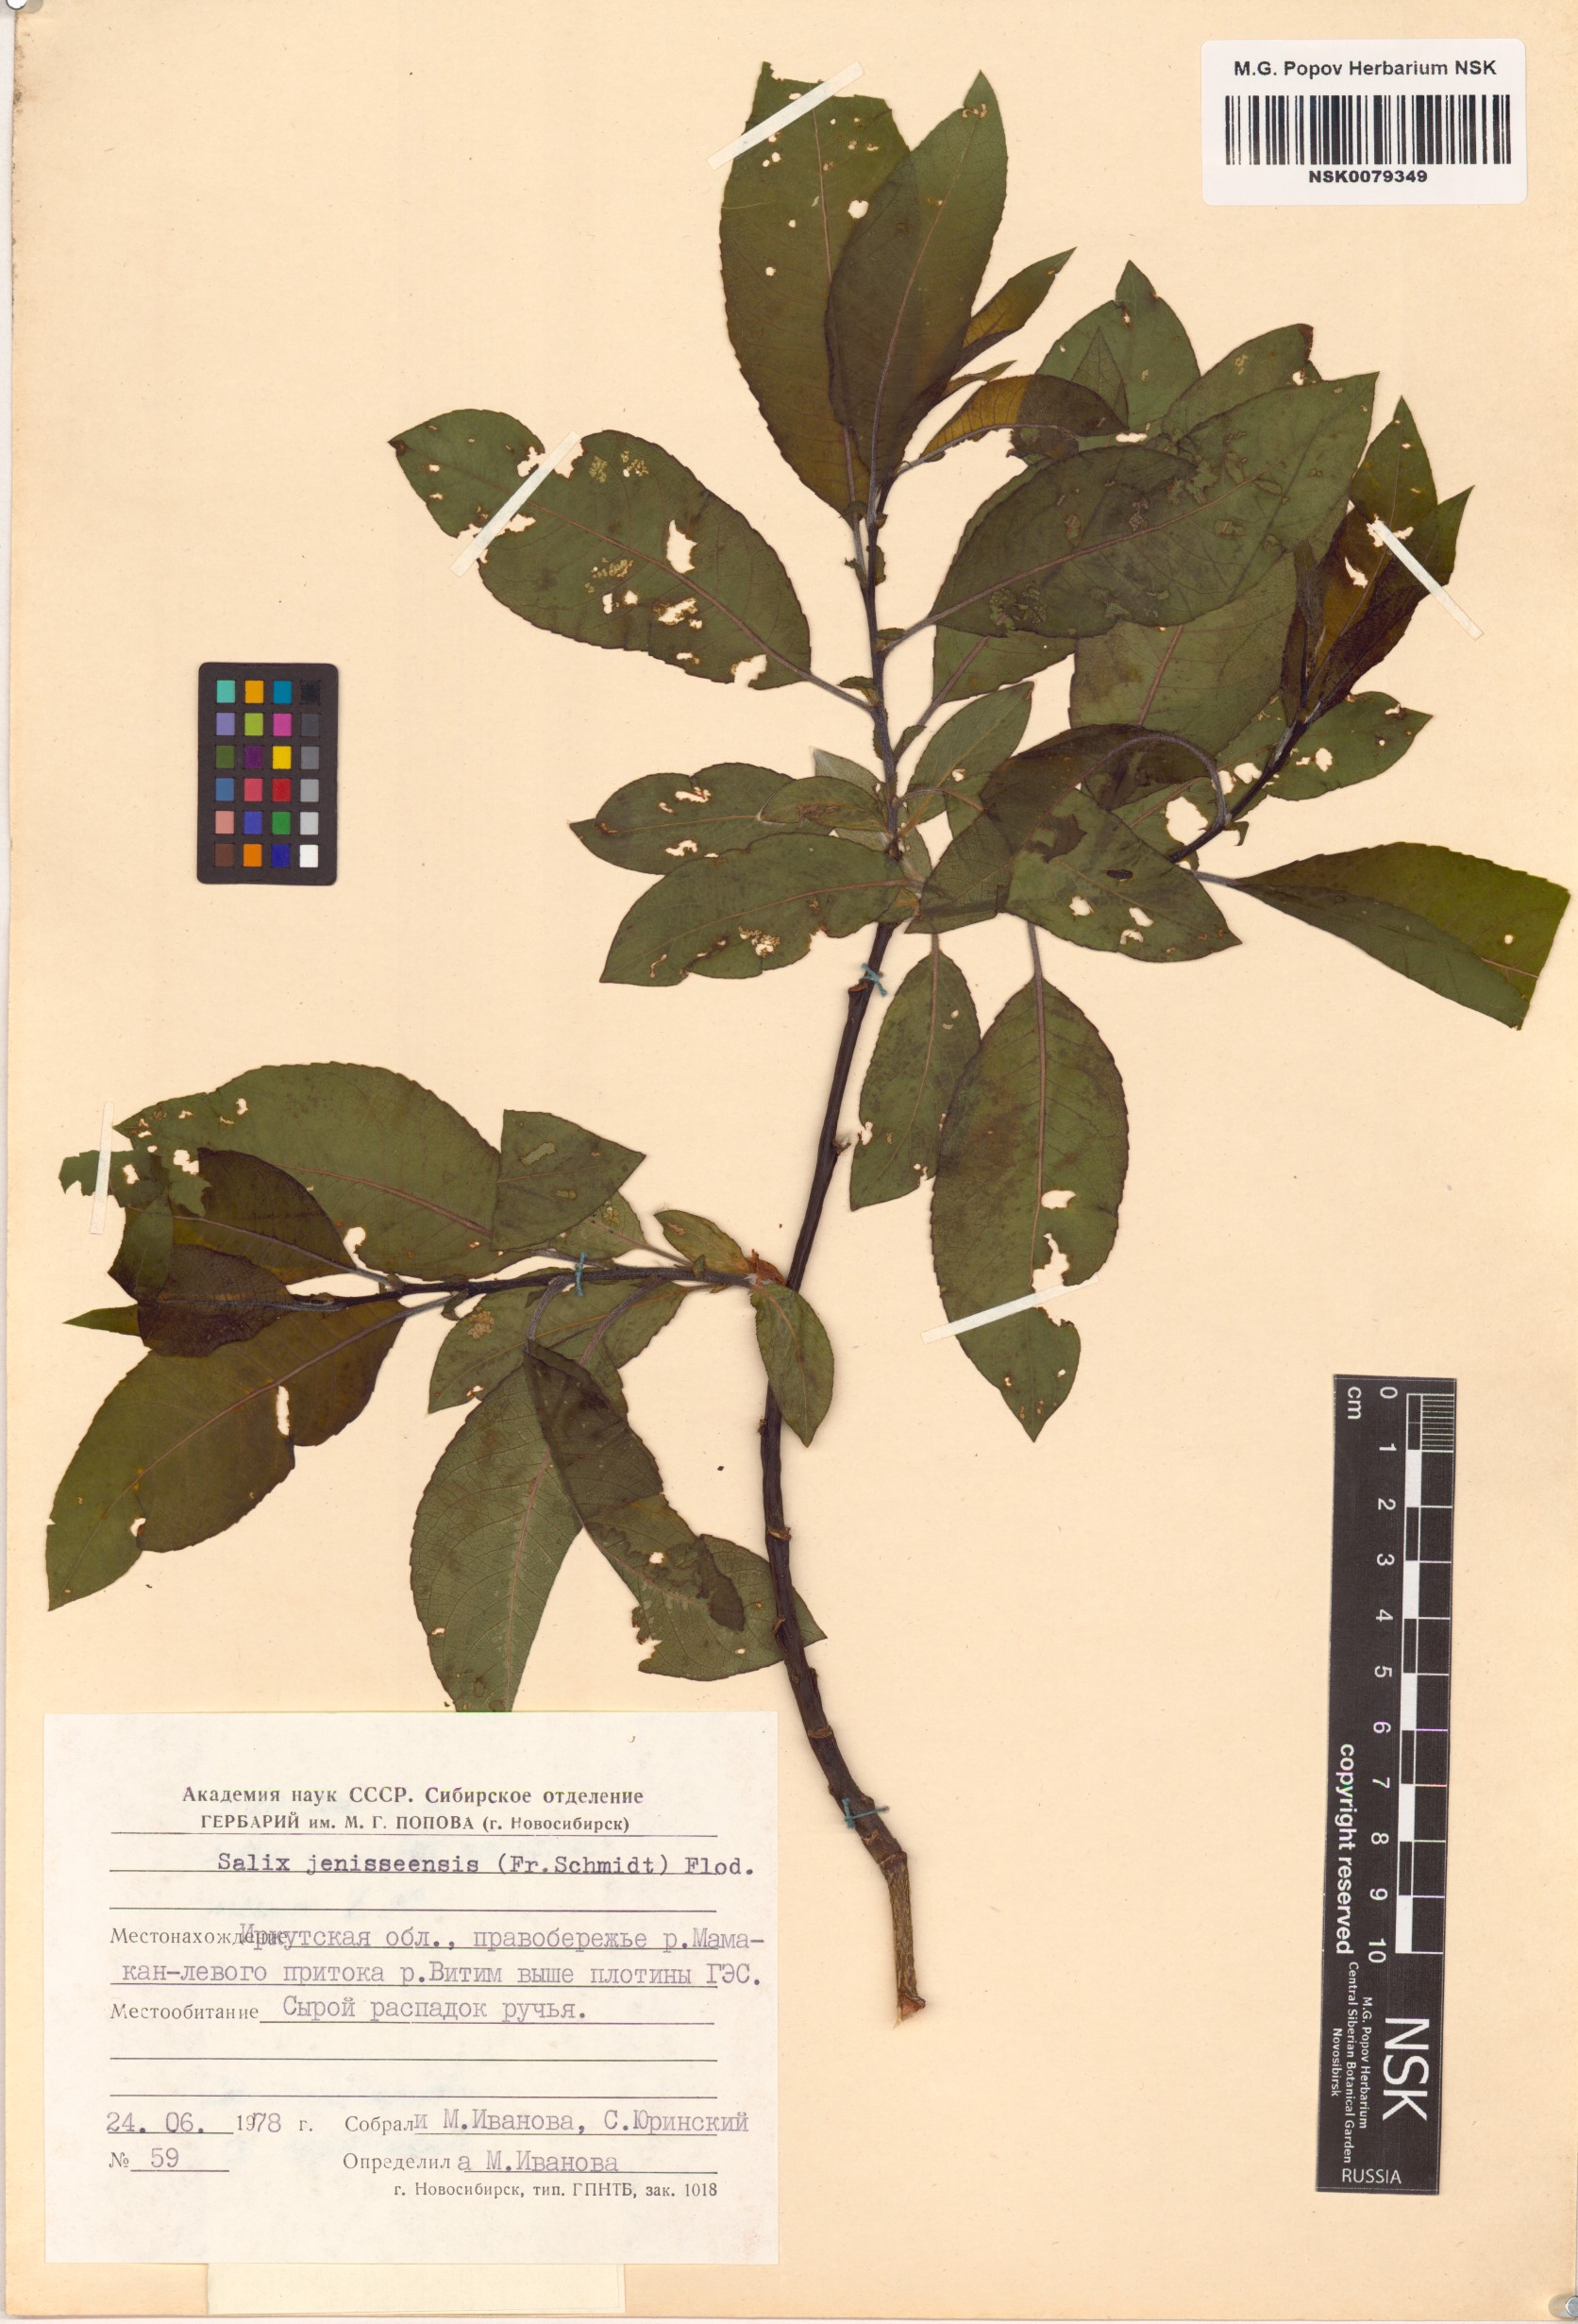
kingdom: Plantae
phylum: Tracheophyta
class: Magnoliopsida
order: Malpighiales
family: Salicaceae
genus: Salix
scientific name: Salix jenisseensis
